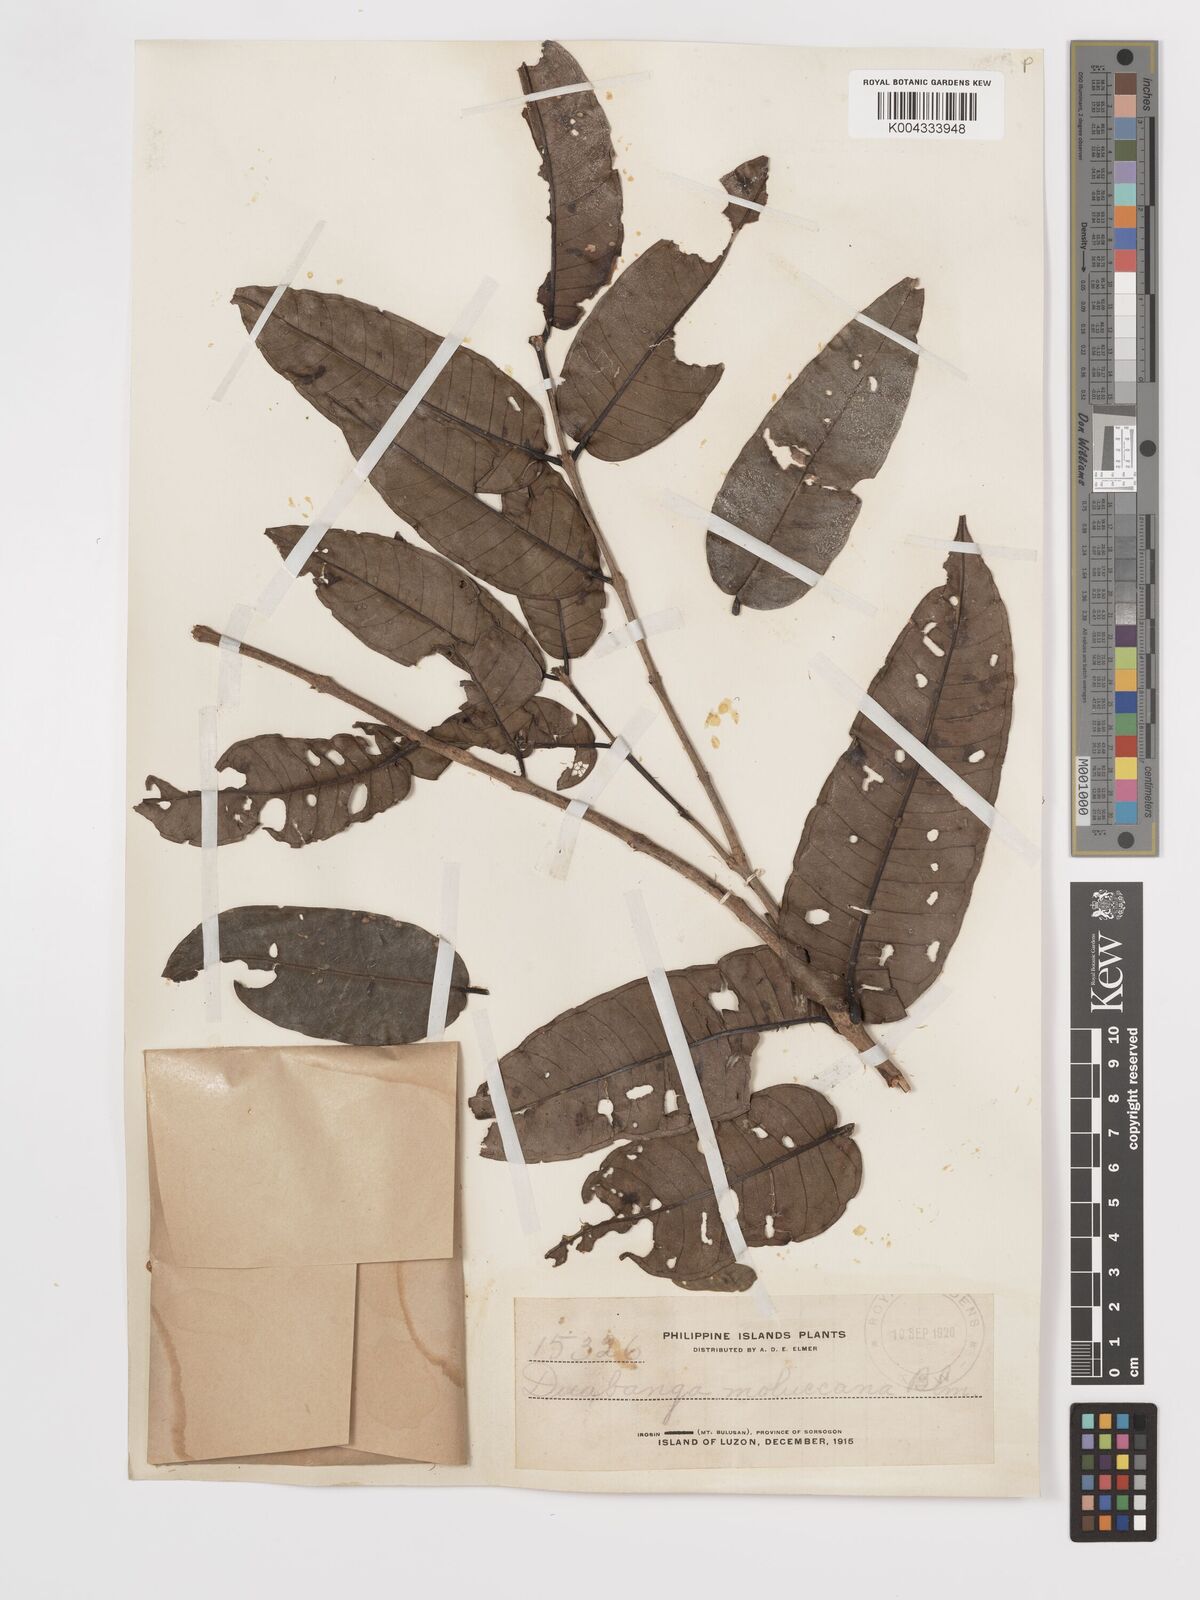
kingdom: Plantae
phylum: Tracheophyta
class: Magnoliopsida
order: Myrtales
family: Lythraceae
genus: Duabanga
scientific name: Duabanga moluccana
